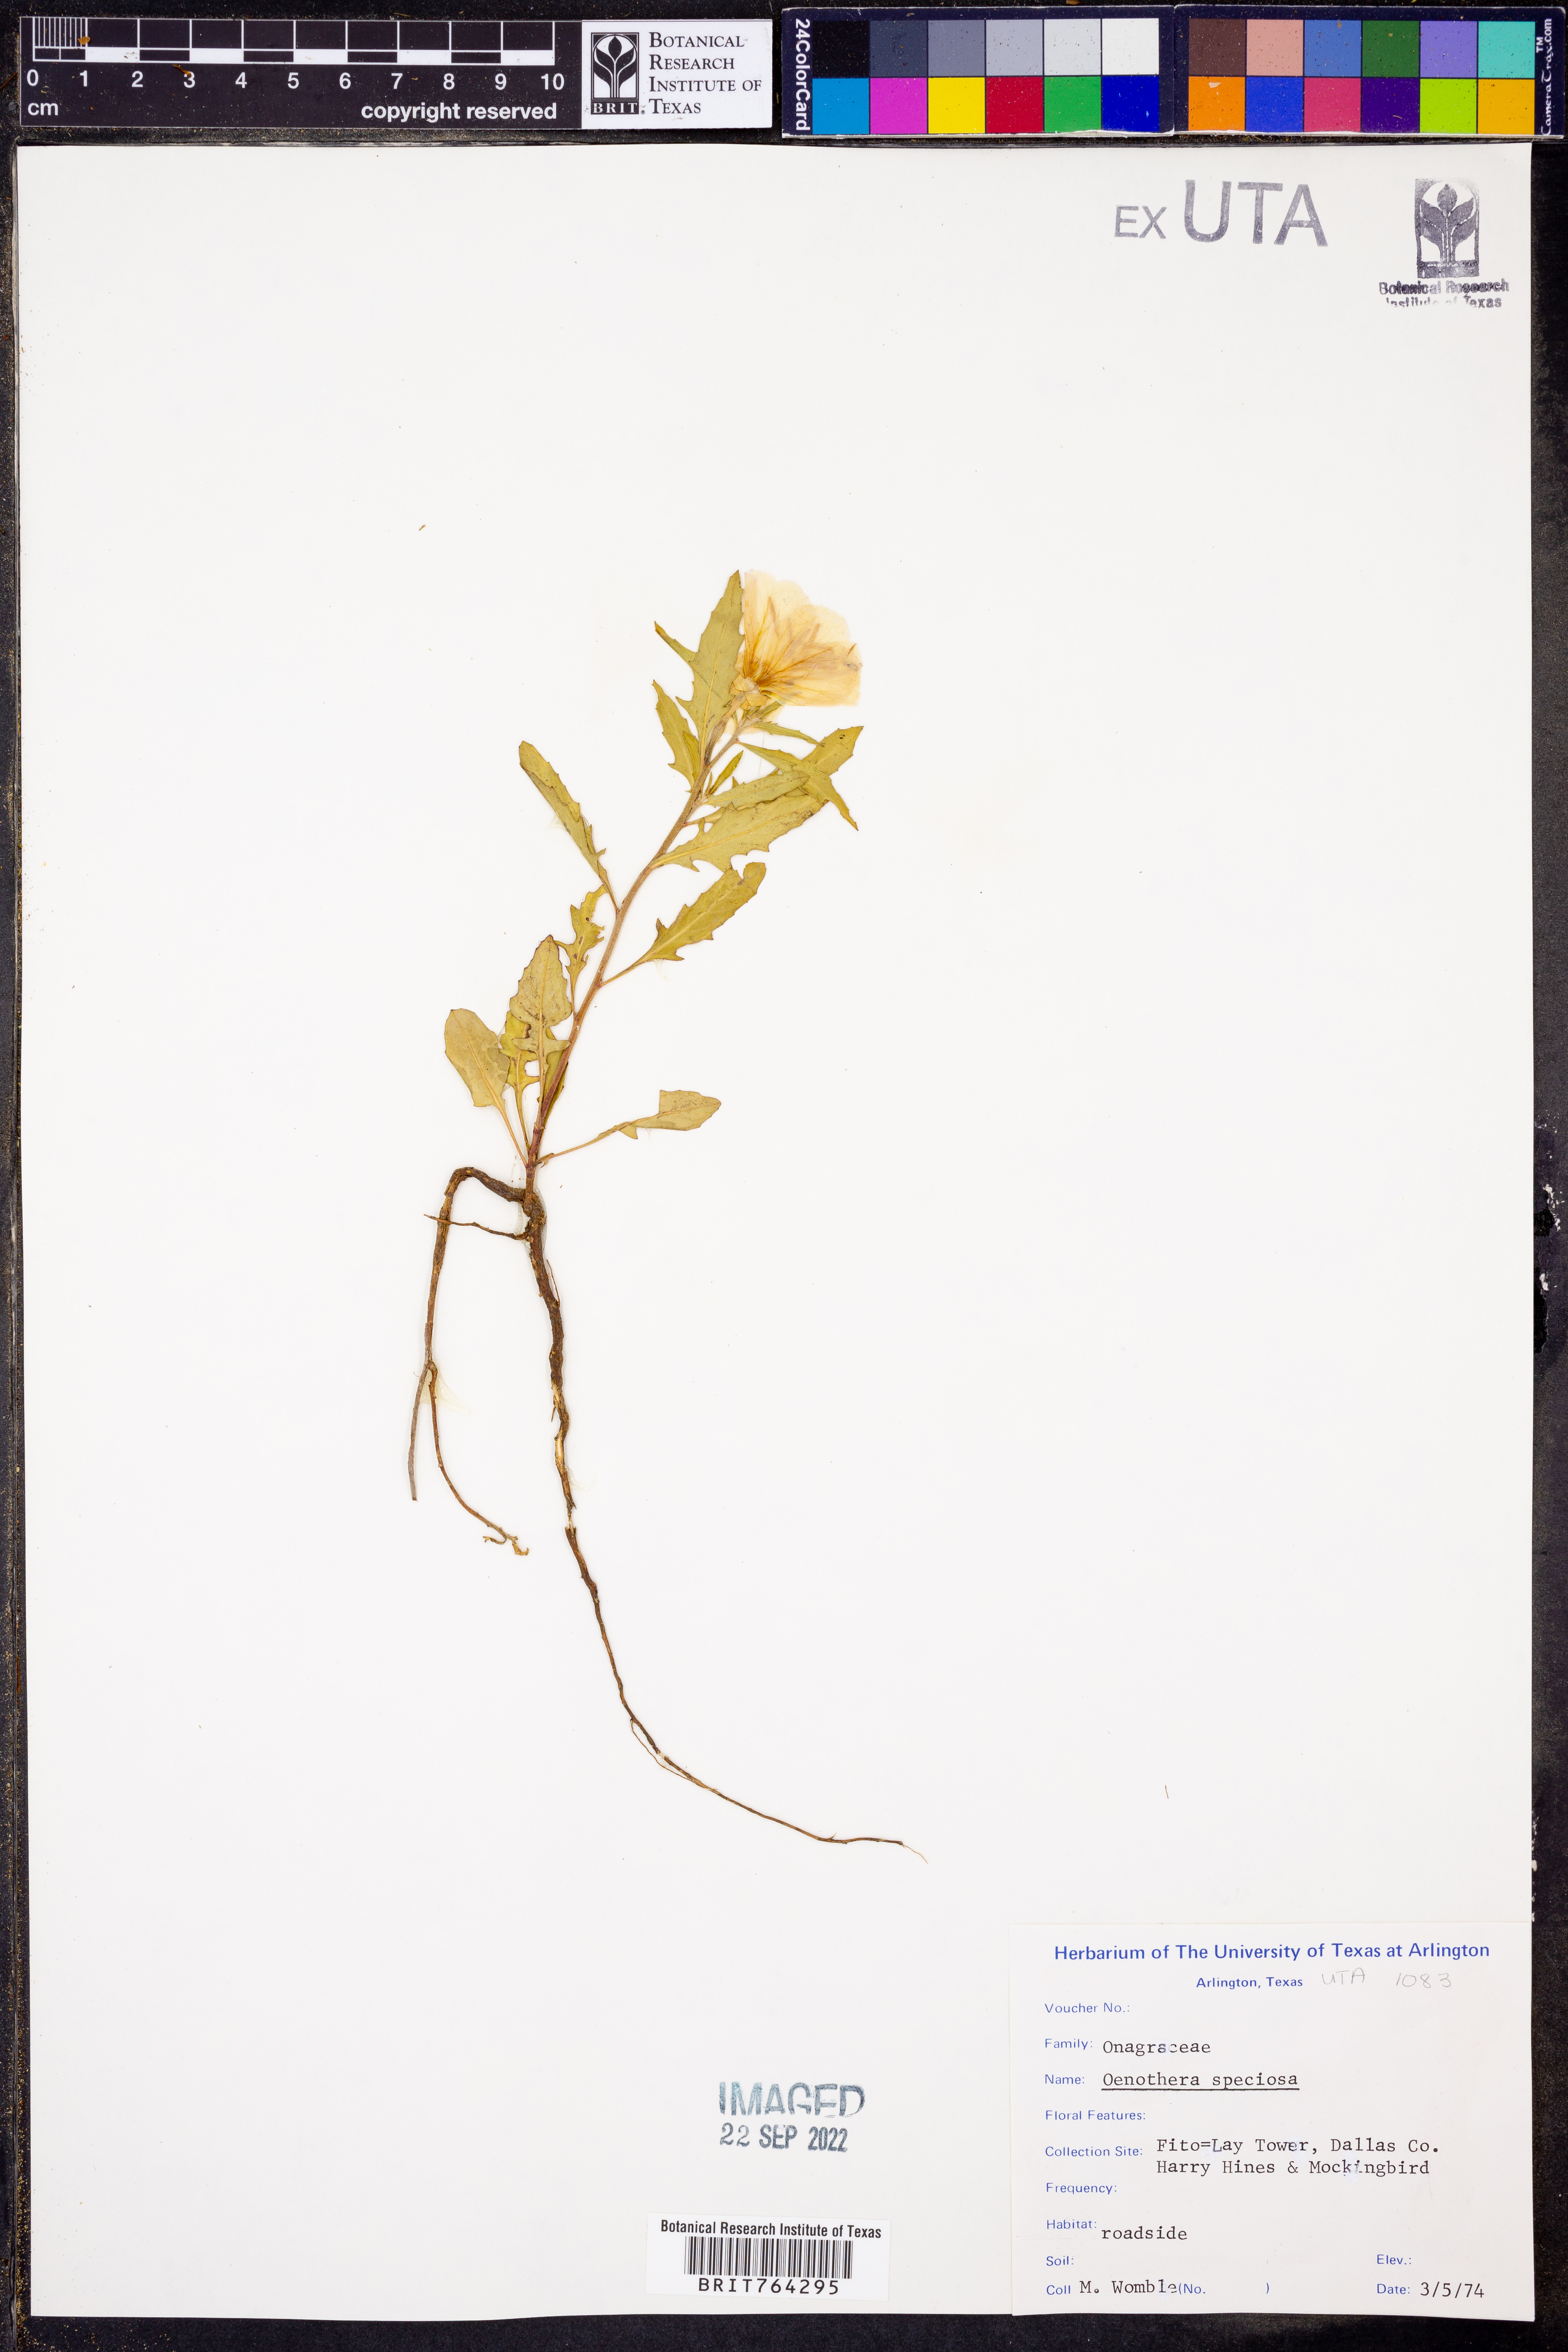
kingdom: Plantae
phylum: Tracheophyta
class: Magnoliopsida
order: Myrtales
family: Onagraceae
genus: Oenothera
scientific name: Oenothera speciosa
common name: White evening-primrose
